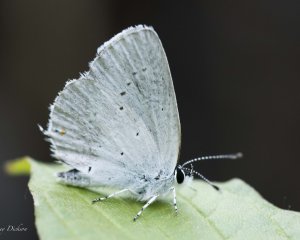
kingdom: Animalia
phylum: Arthropoda
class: Insecta
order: Lepidoptera
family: Lycaenidae
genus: Elkalyce
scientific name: Elkalyce amyntula
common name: Western Tailed-Blue
